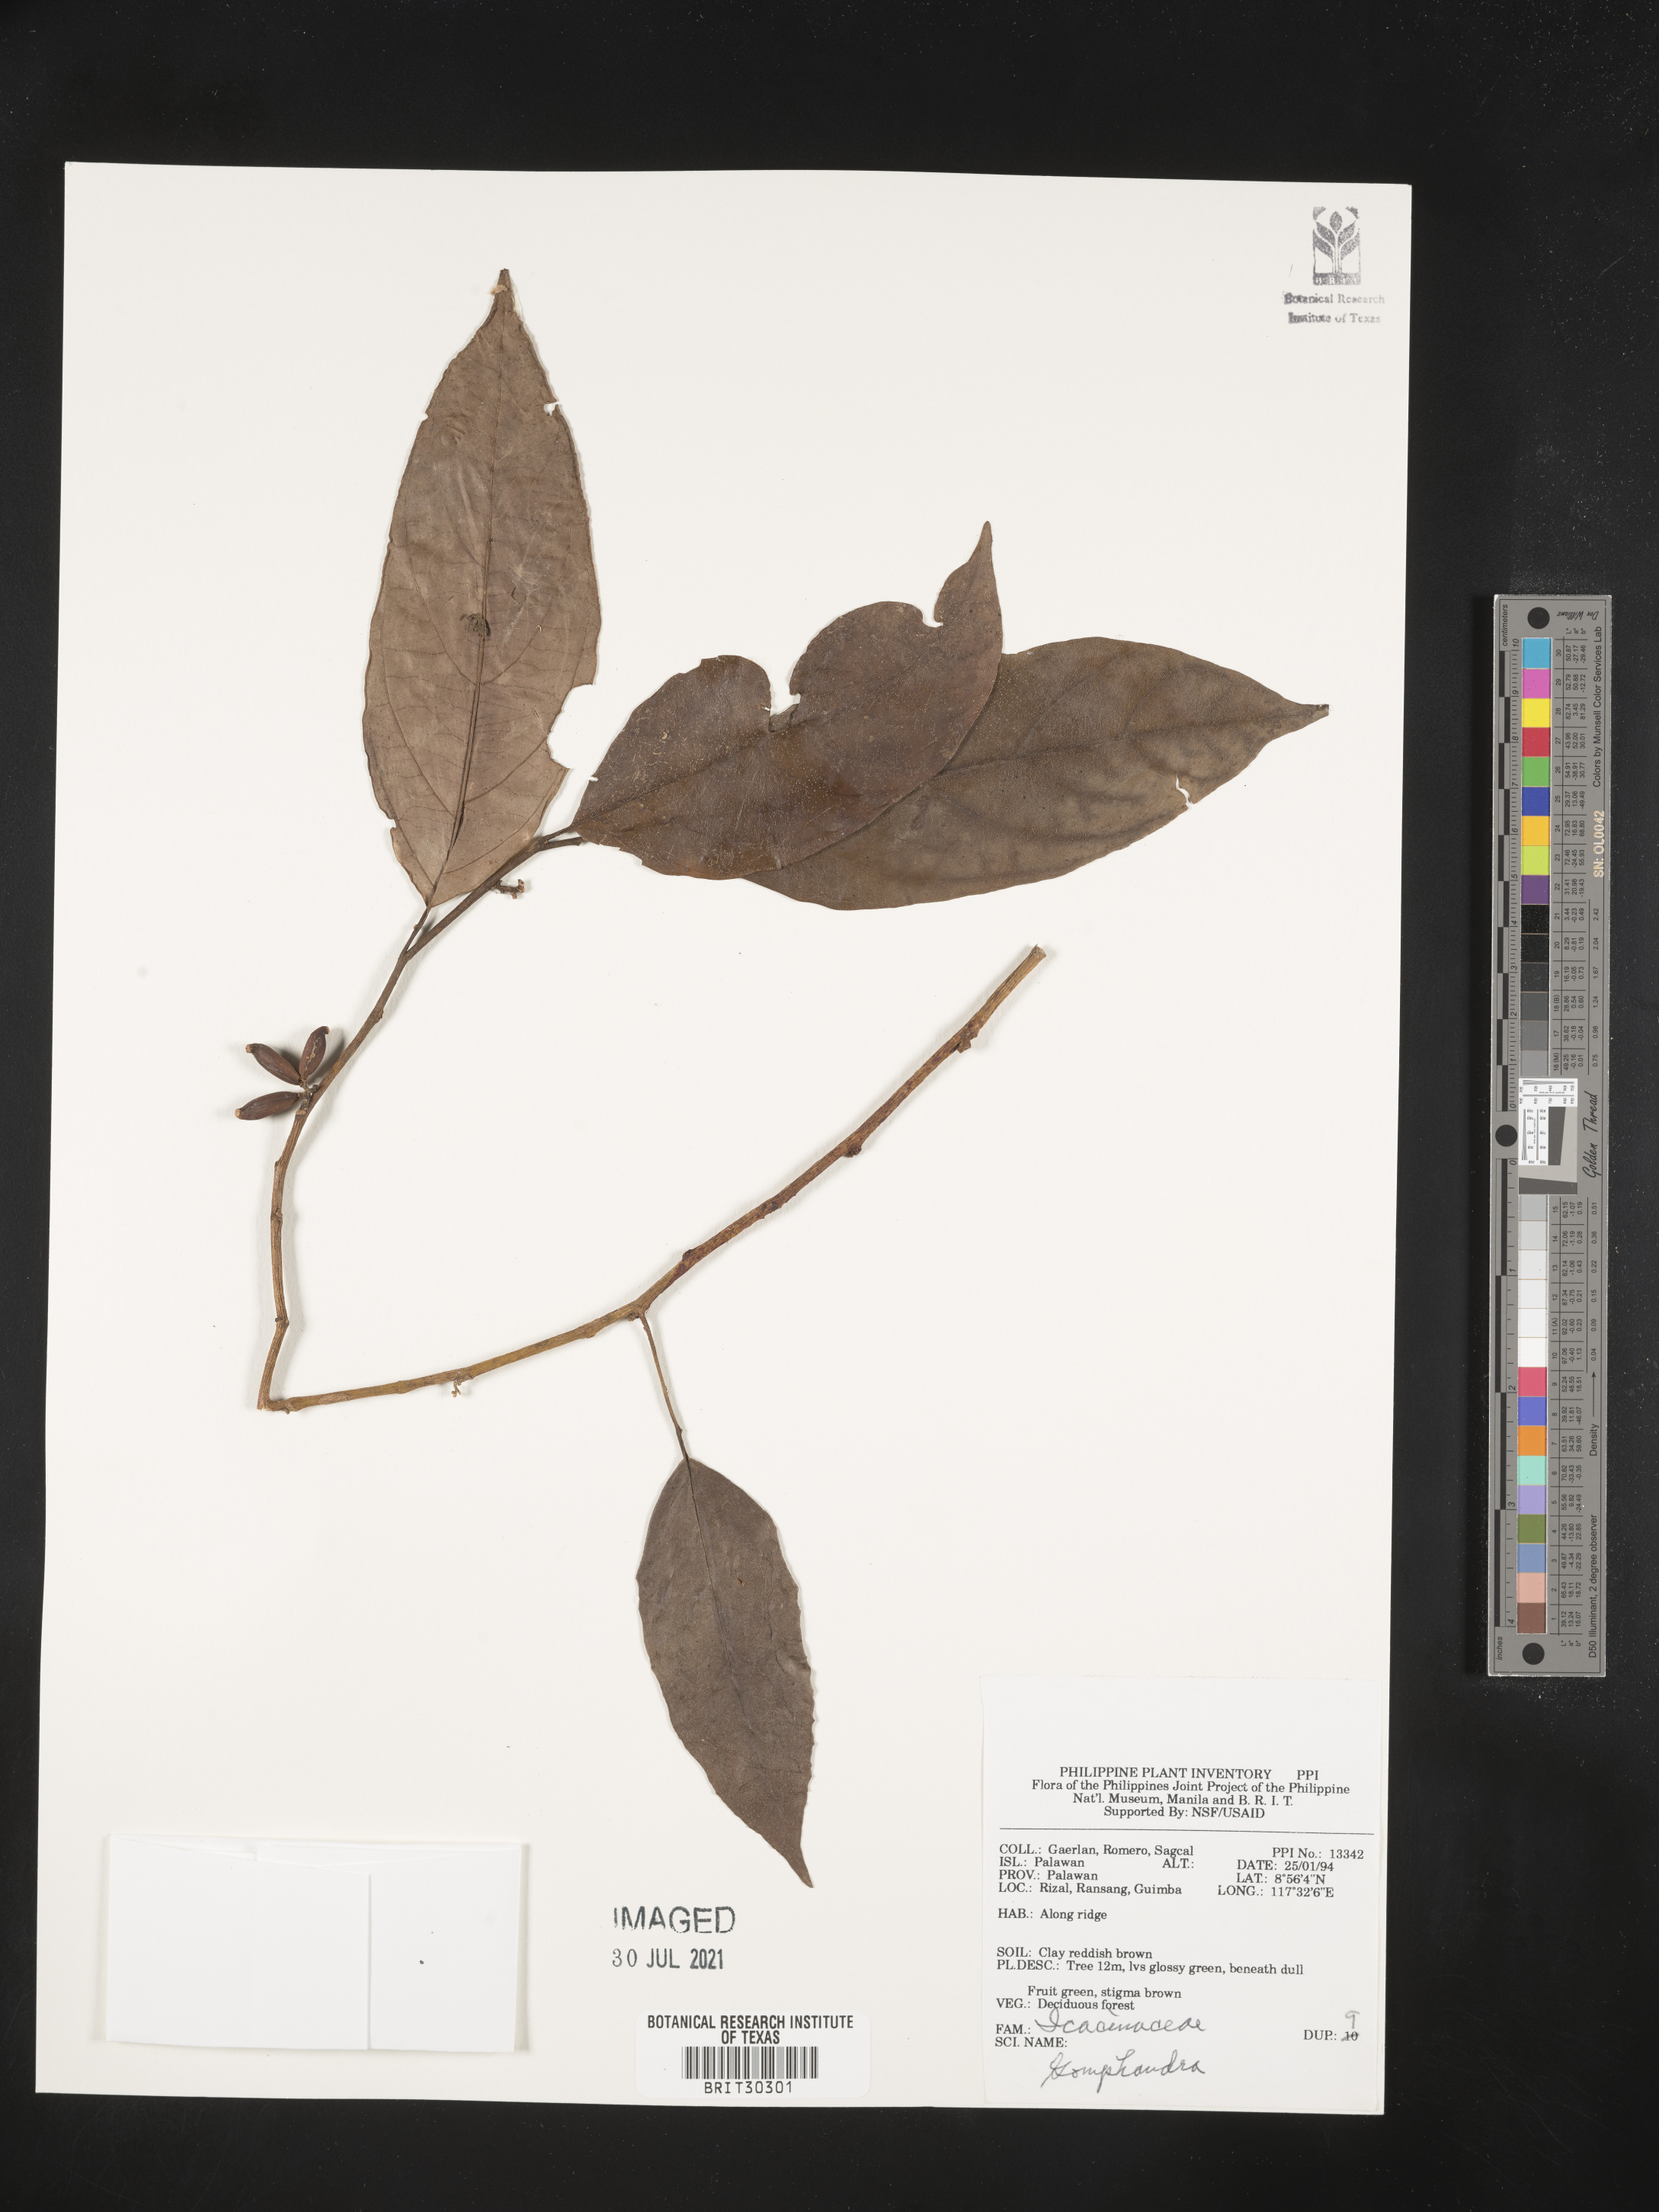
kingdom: Plantae
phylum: Tracheophyta
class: Magnoliopsida
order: Cardiopteridales
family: Stemonuraceae
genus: Gomphandra
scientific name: Gomphandra
